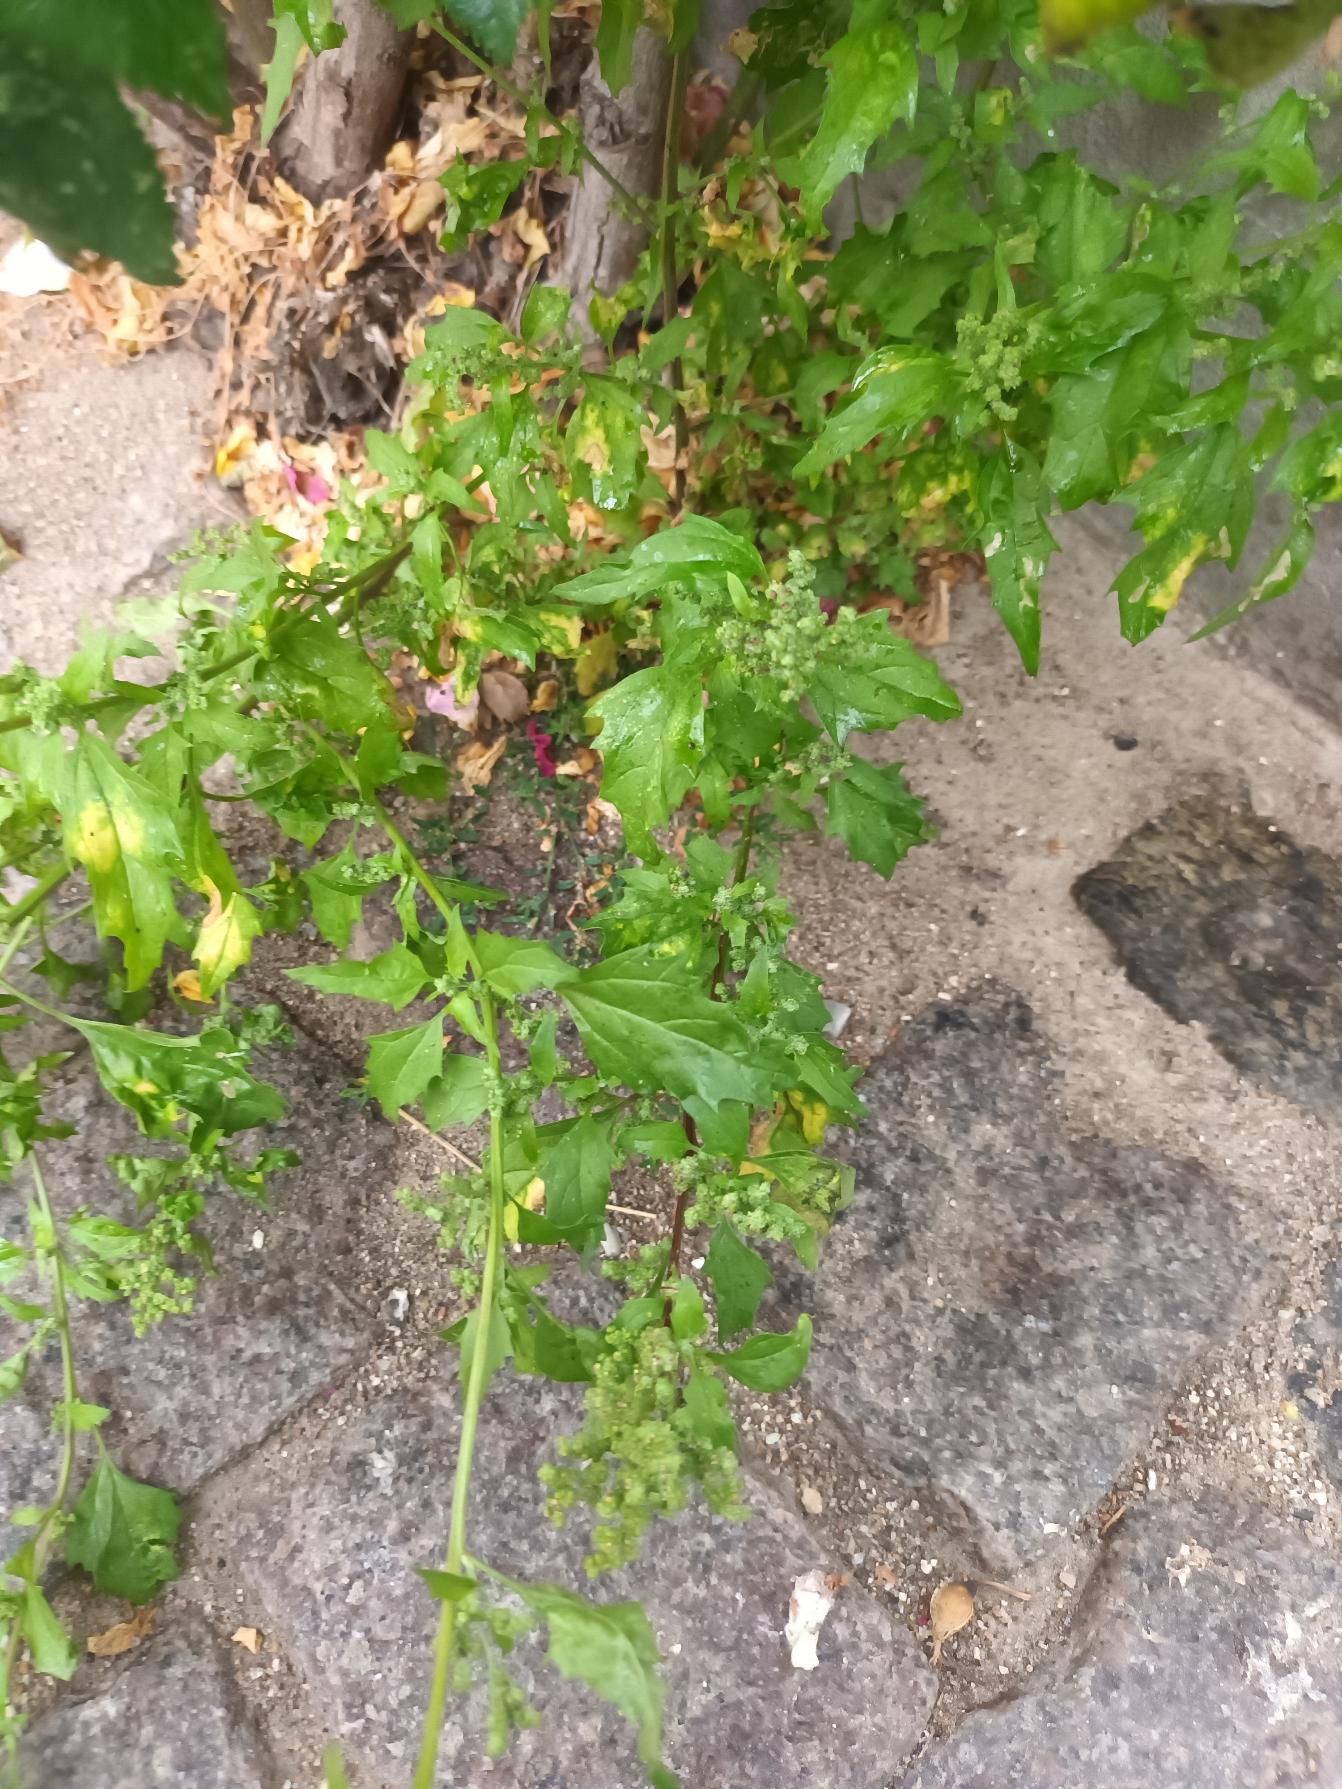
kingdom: Plantae
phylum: Tracheophyta
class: Magnoliopsida
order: Caryophyllales
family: Amaranthaceae
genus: Chenopodiastrum
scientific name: Chenopodiastrum murale
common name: Mur-gåsefod
